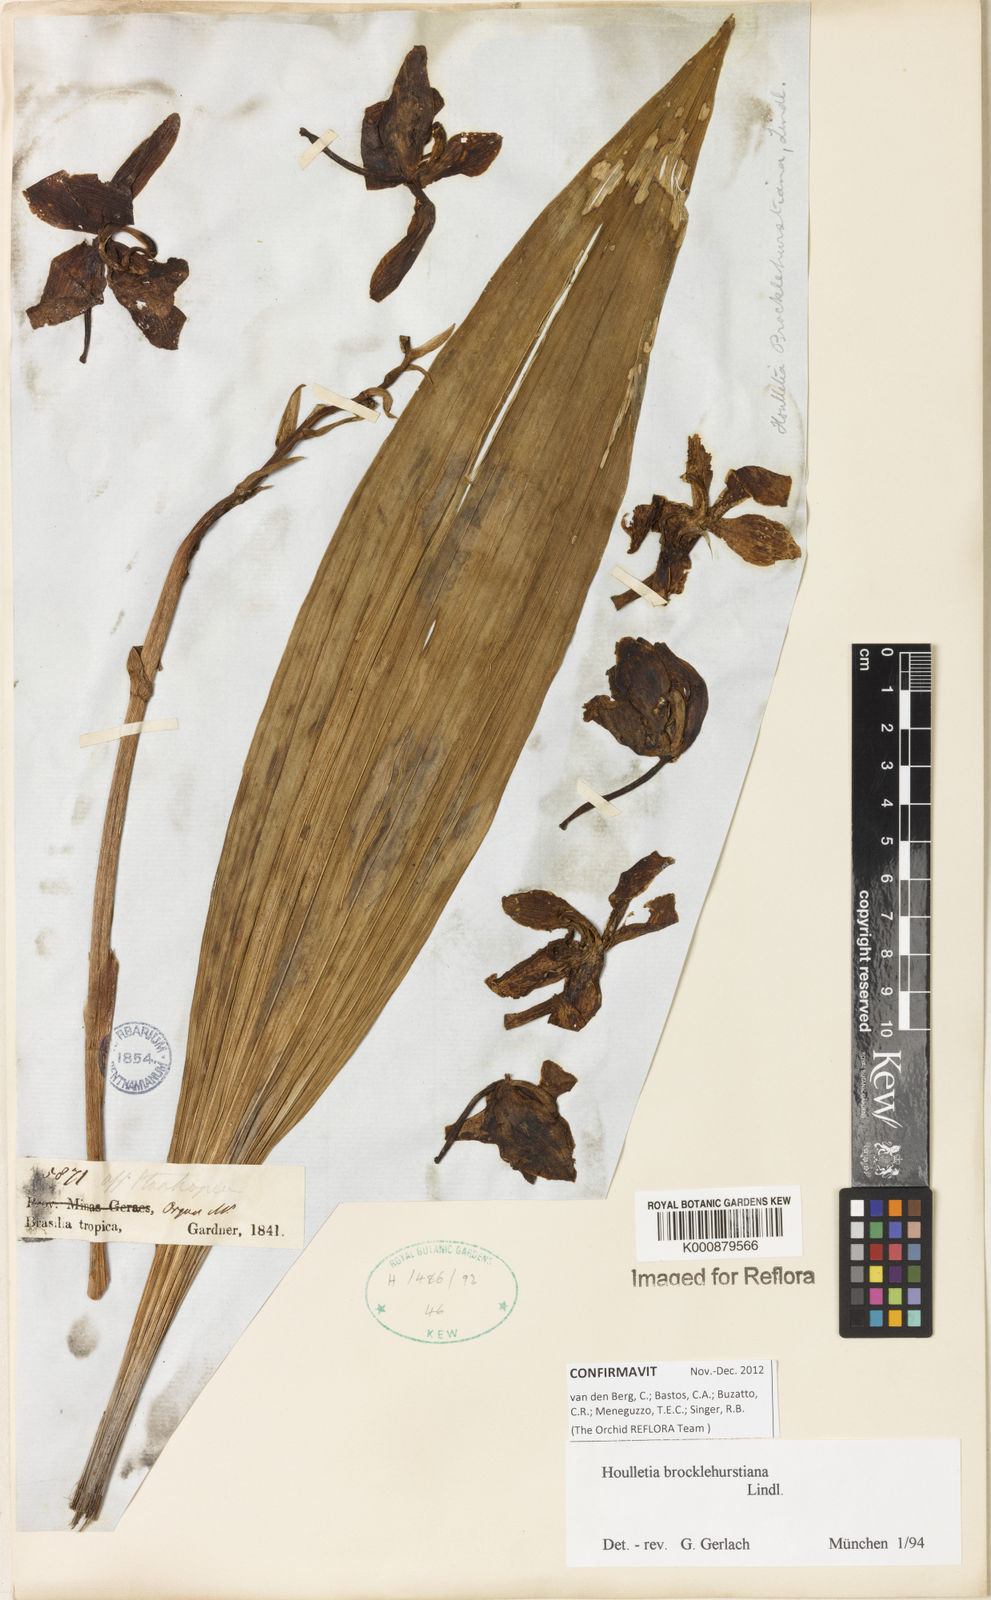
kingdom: Plantae
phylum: Tracheophyta
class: Liliopsida
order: Asparagales
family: Orchidaceae
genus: Houlletia
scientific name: Houlletia brocklehurstiana
